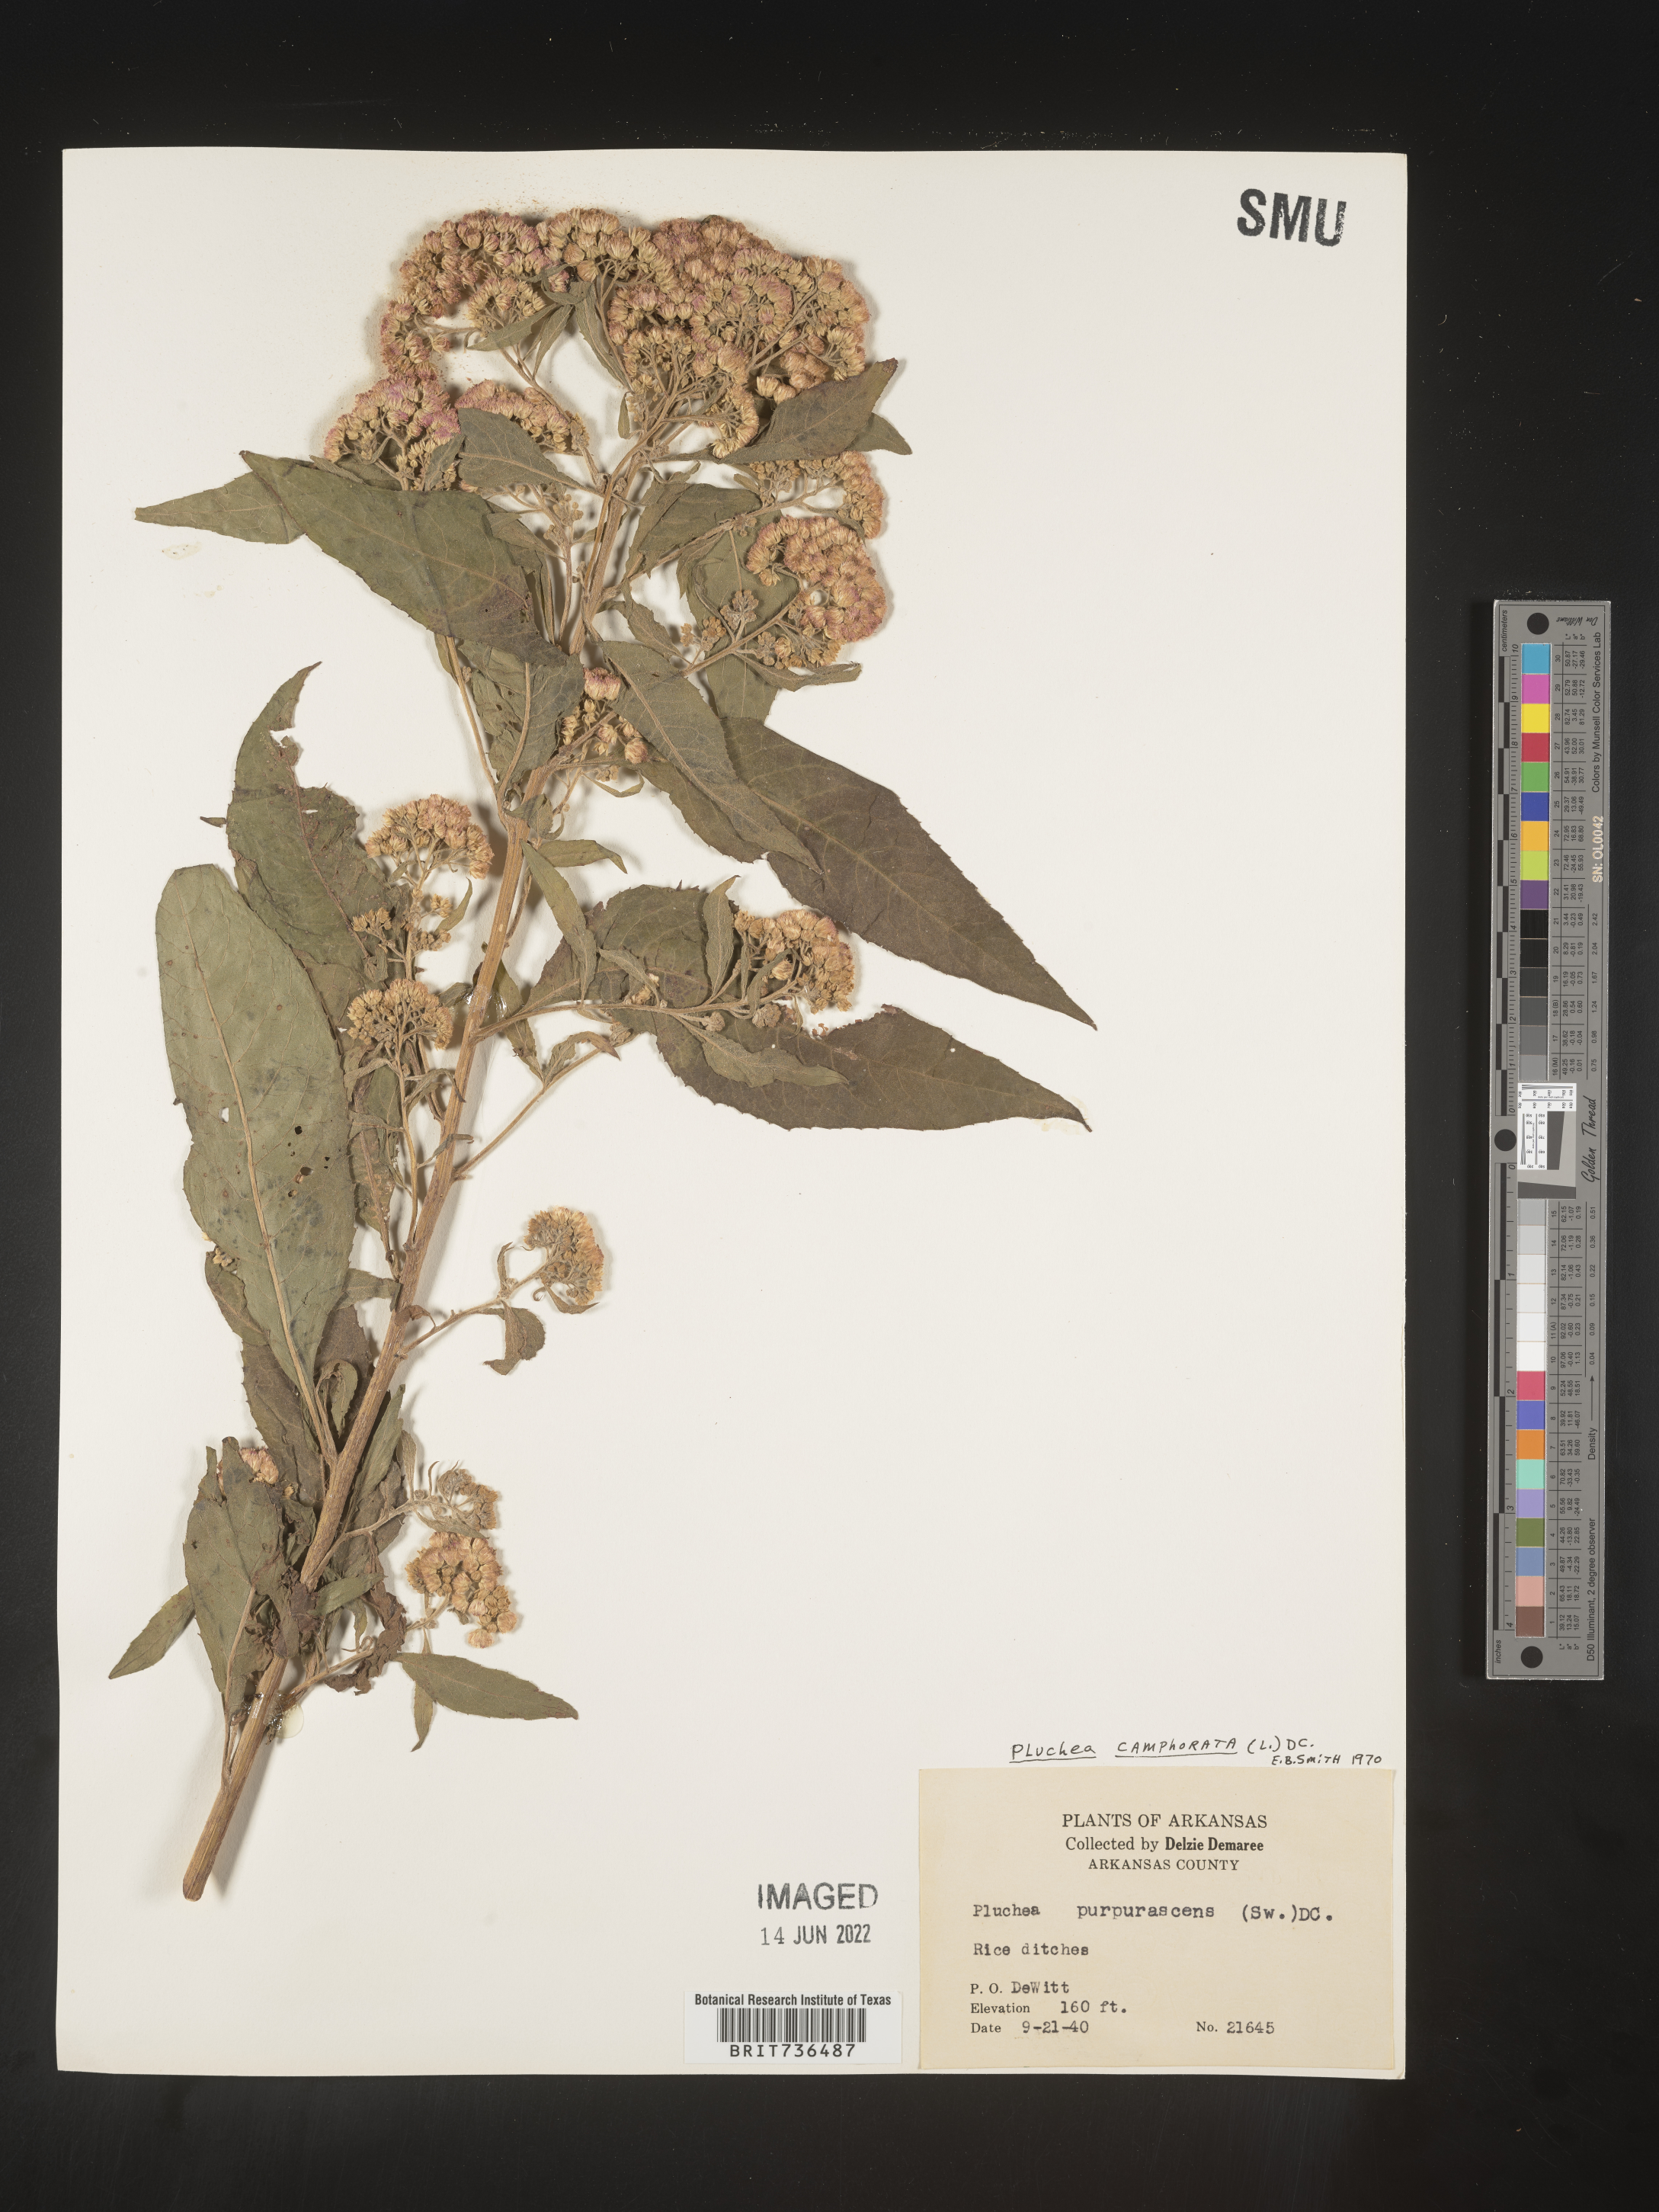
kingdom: Plantae
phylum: Tracheophyta
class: Magnoliopsida
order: Asterales
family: Asteraceae
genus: Pluchea
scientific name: Pluchea camphorata
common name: Camphor pluchea
